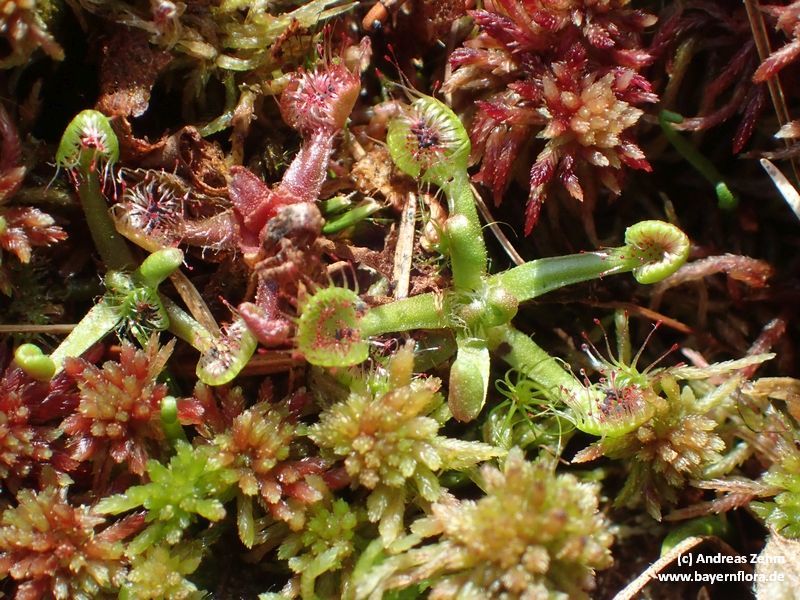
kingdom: Plantae
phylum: Tracheophyta
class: Magnoliopsida
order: Caryophyllales
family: Droseraceae
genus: Drosera
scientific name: Drosera rotundifolia
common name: Round-leaved sundew
